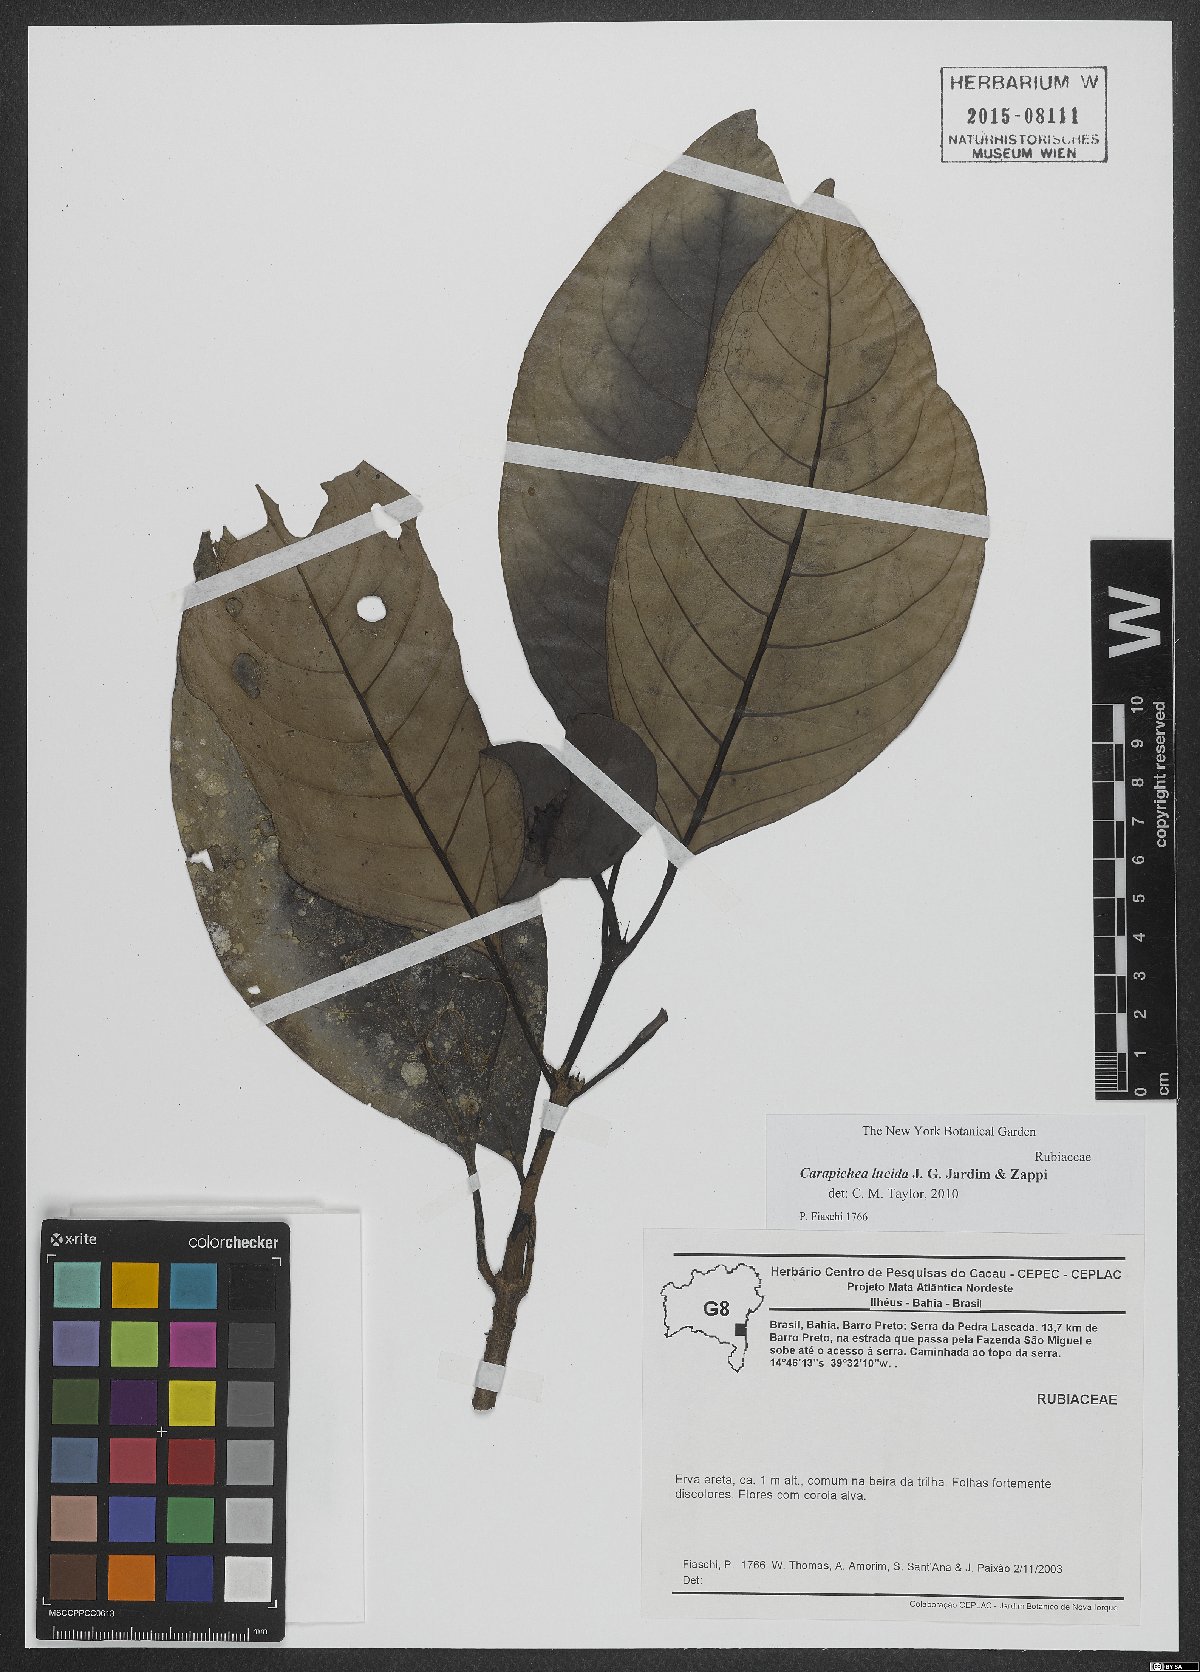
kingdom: Plantae
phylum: Tracheophyta
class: Magnoliopsida
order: Gentianales
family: Rubiaceae
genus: Carapichea
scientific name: Carapichea lucida
